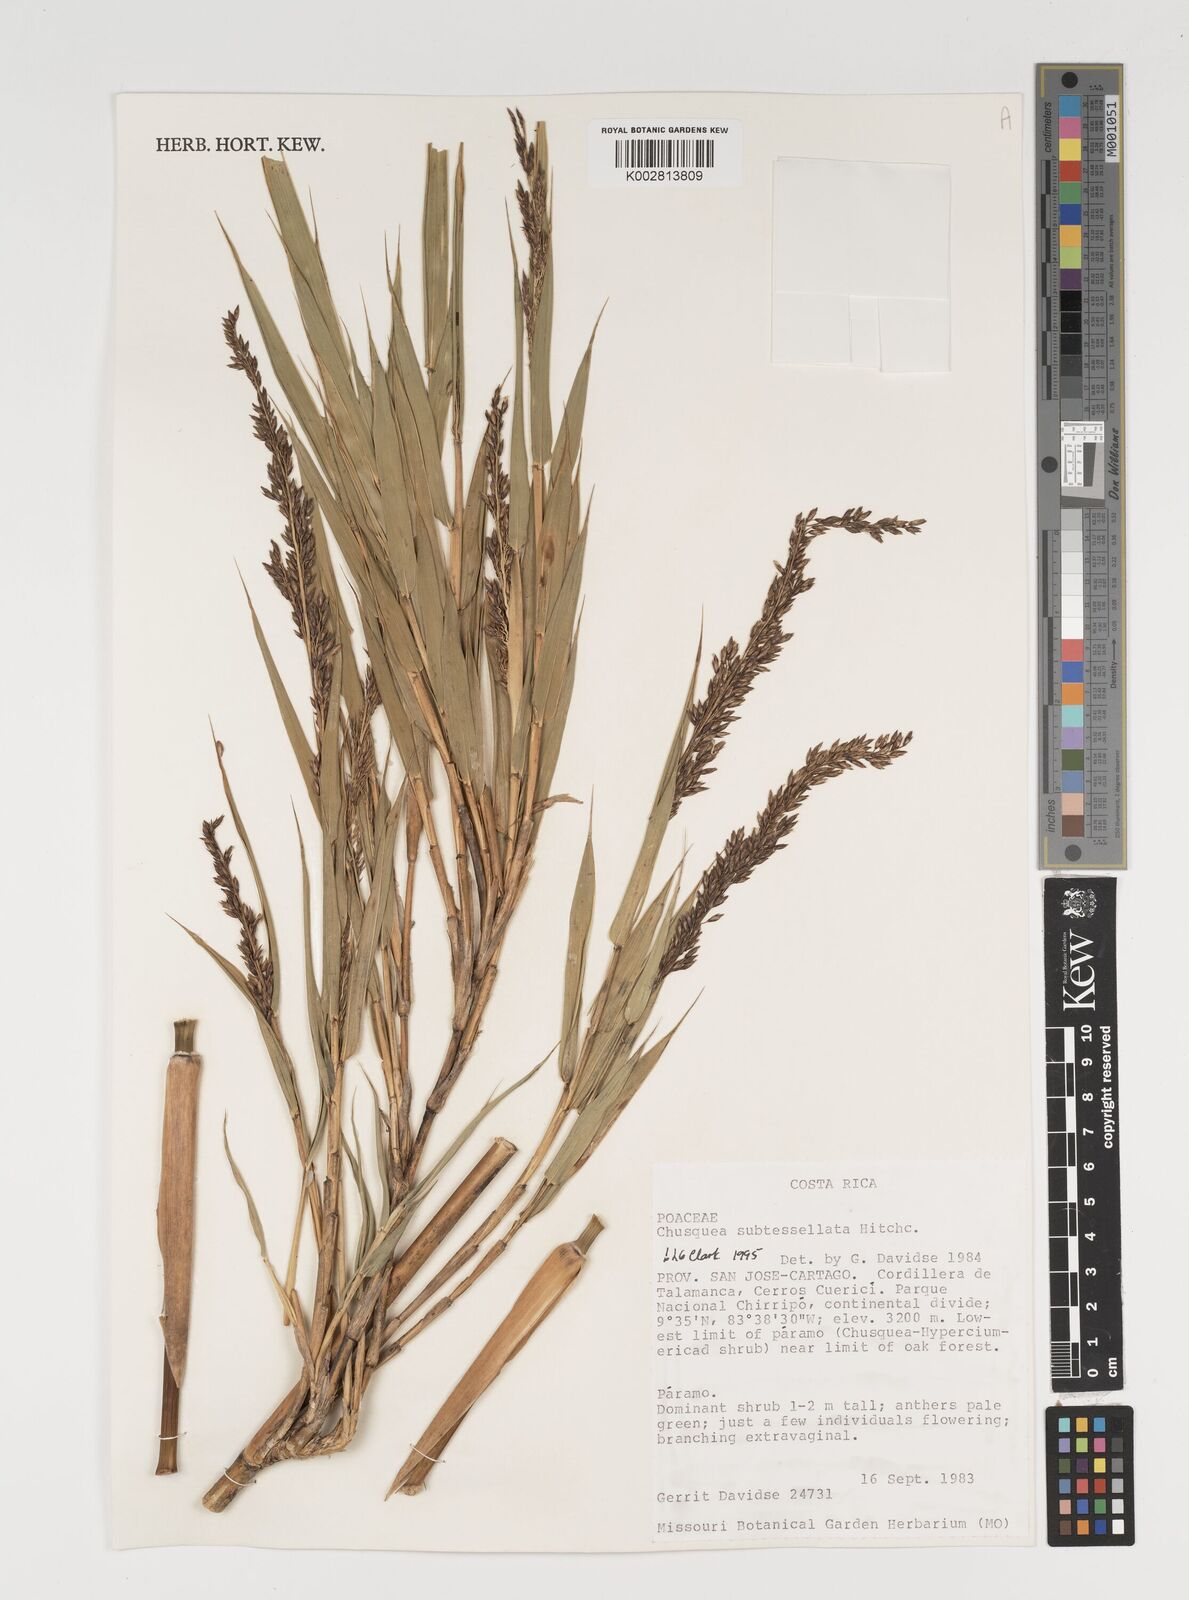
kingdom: Plantae
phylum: Tracheophyta
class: Liliopsida
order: Poales
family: Poaceae
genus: Chusquea
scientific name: Chusquea subtessellata
